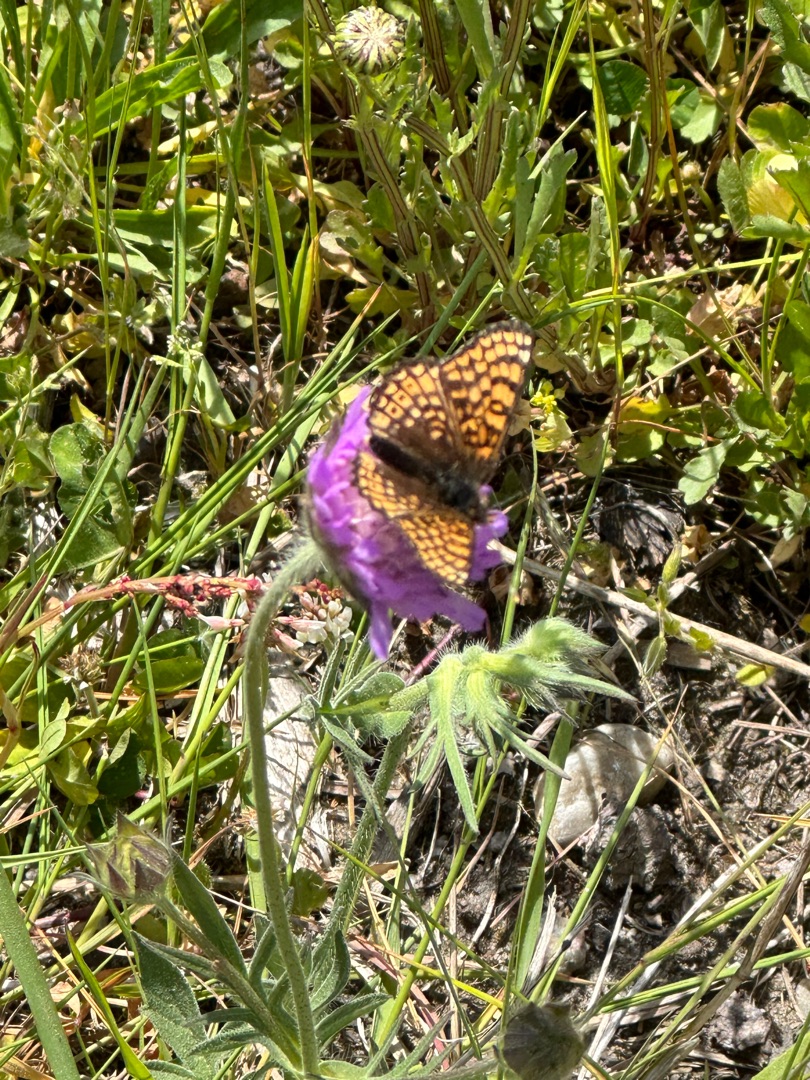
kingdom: Animalia
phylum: Arthropoda
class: Insecta
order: Lepidoptera
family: Nymphalidae
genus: Melitaea
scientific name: Melitaea cinxia
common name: Okkergul pletvinge
